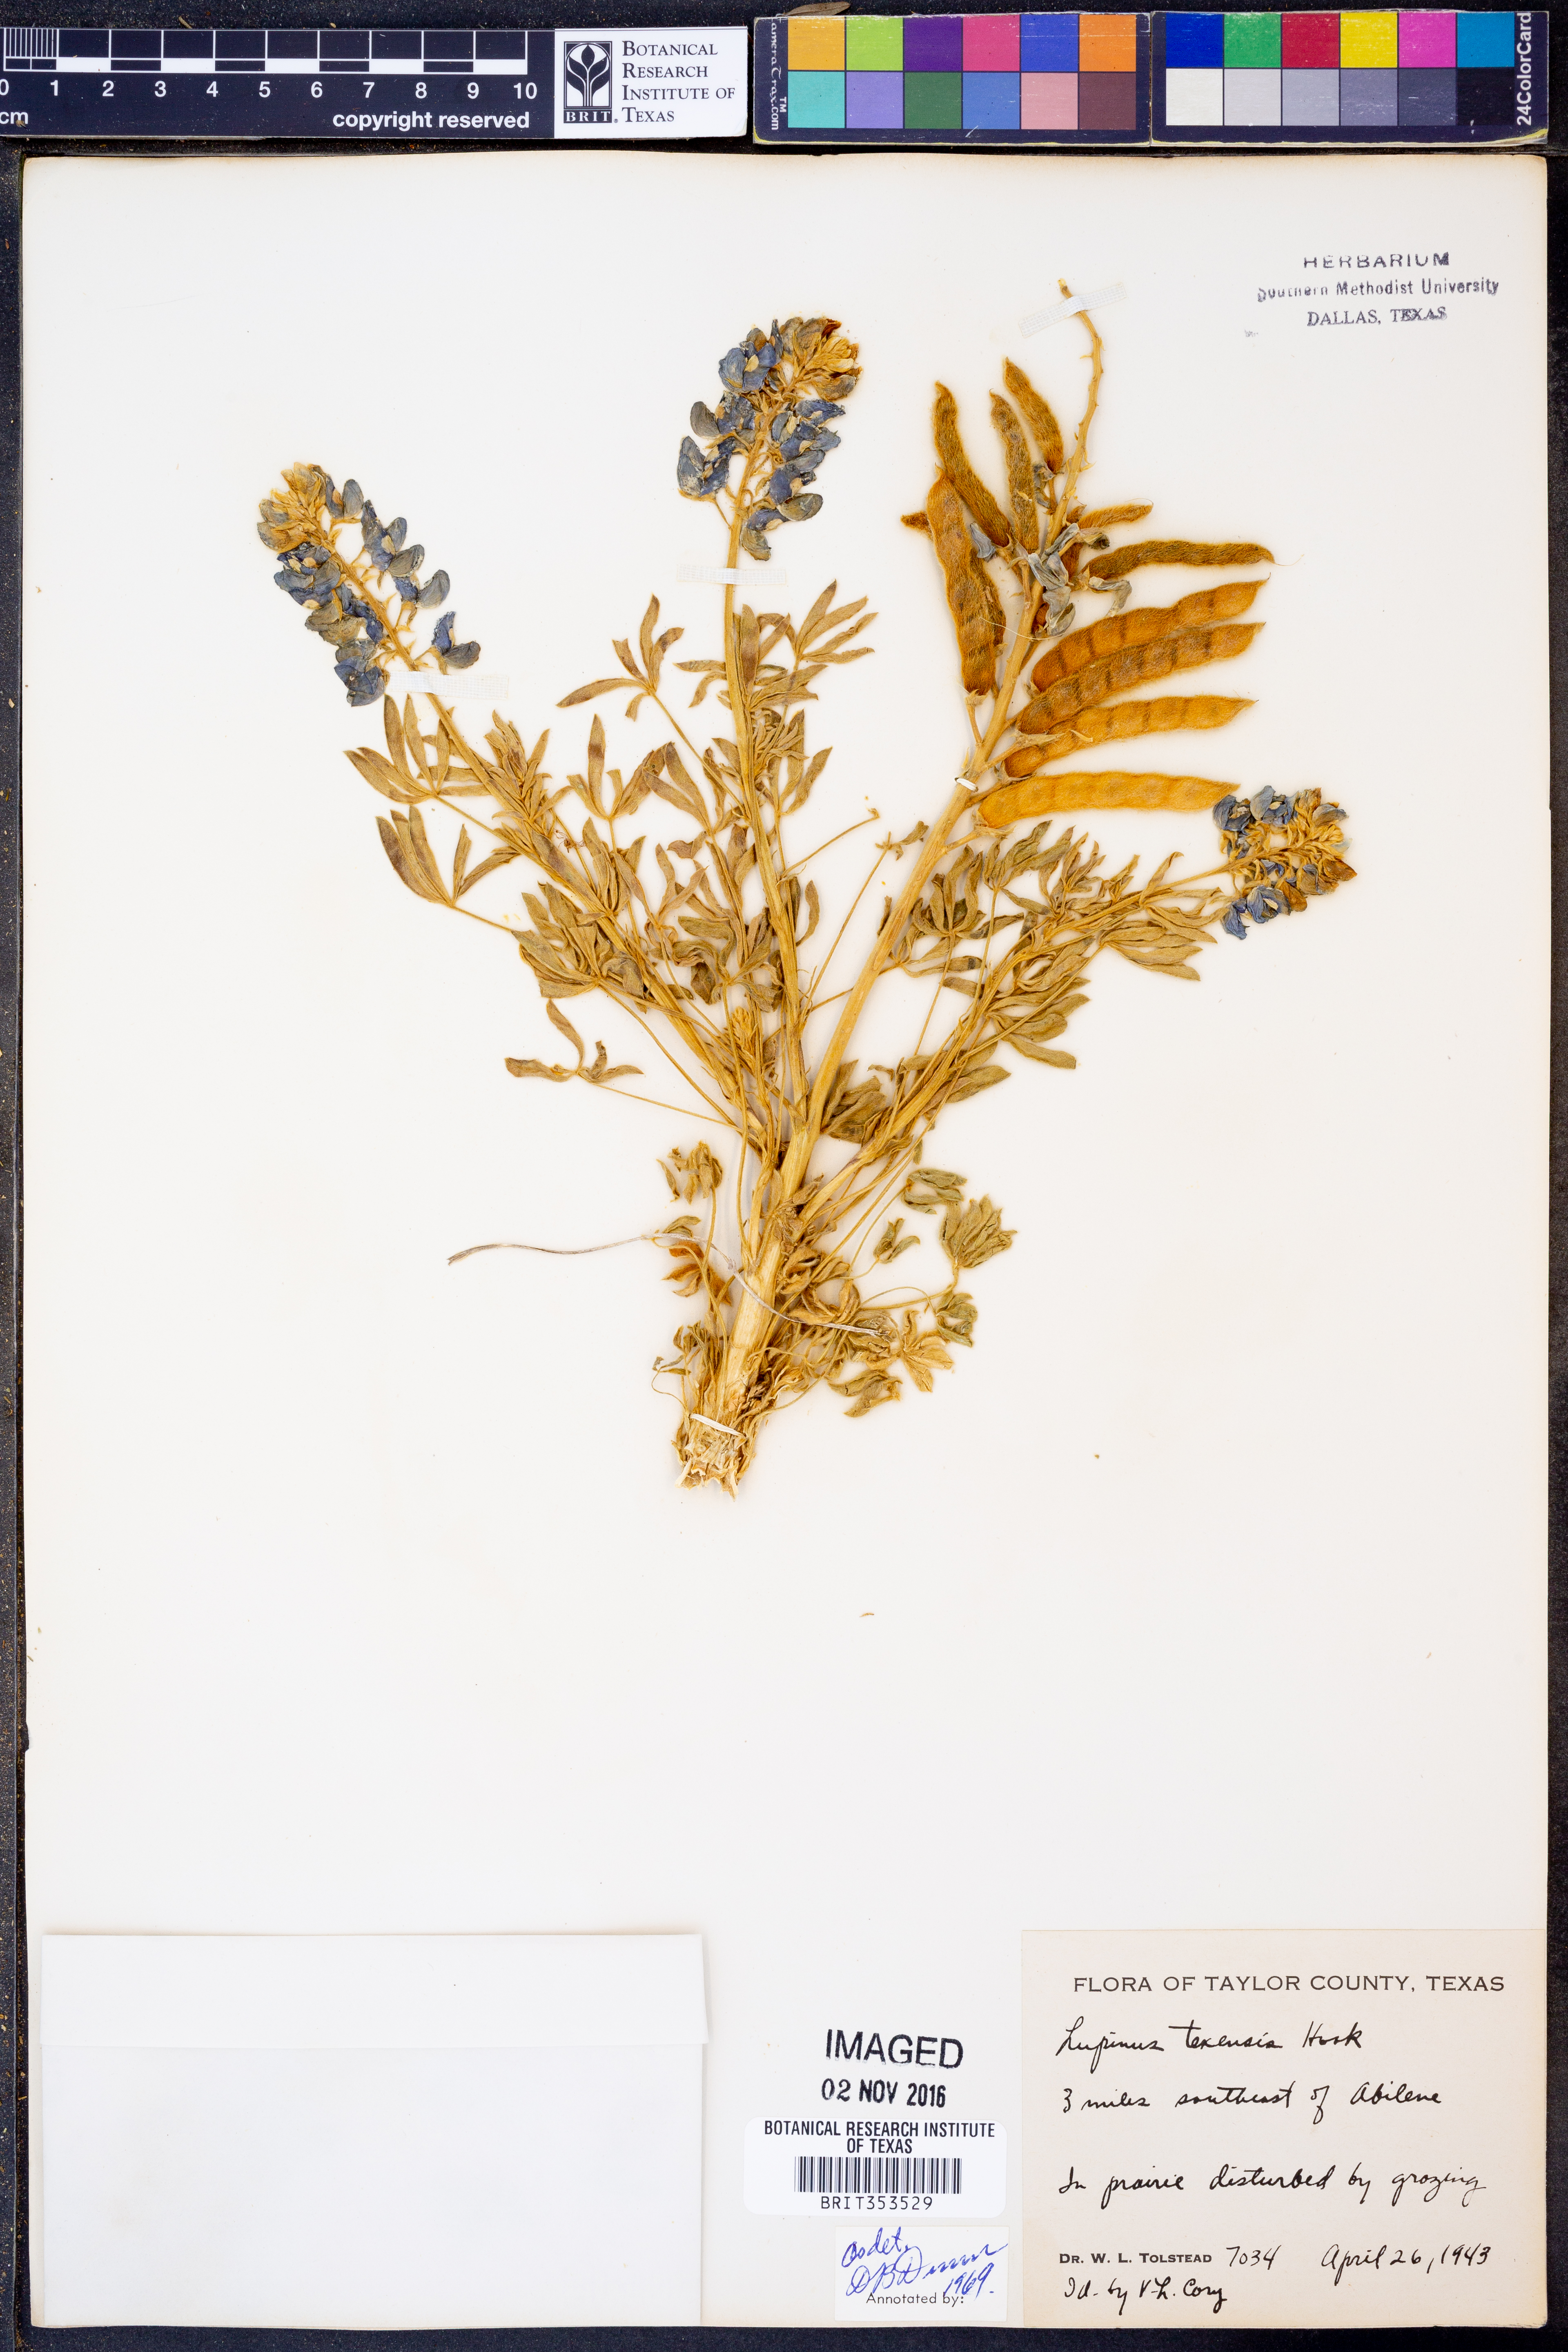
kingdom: Plantae
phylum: Tracheophyta
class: Magnoliopsida
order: Fabales
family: Fabaceae
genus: Lupinus
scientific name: Lupinus texensis
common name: Texas bluebonnet
